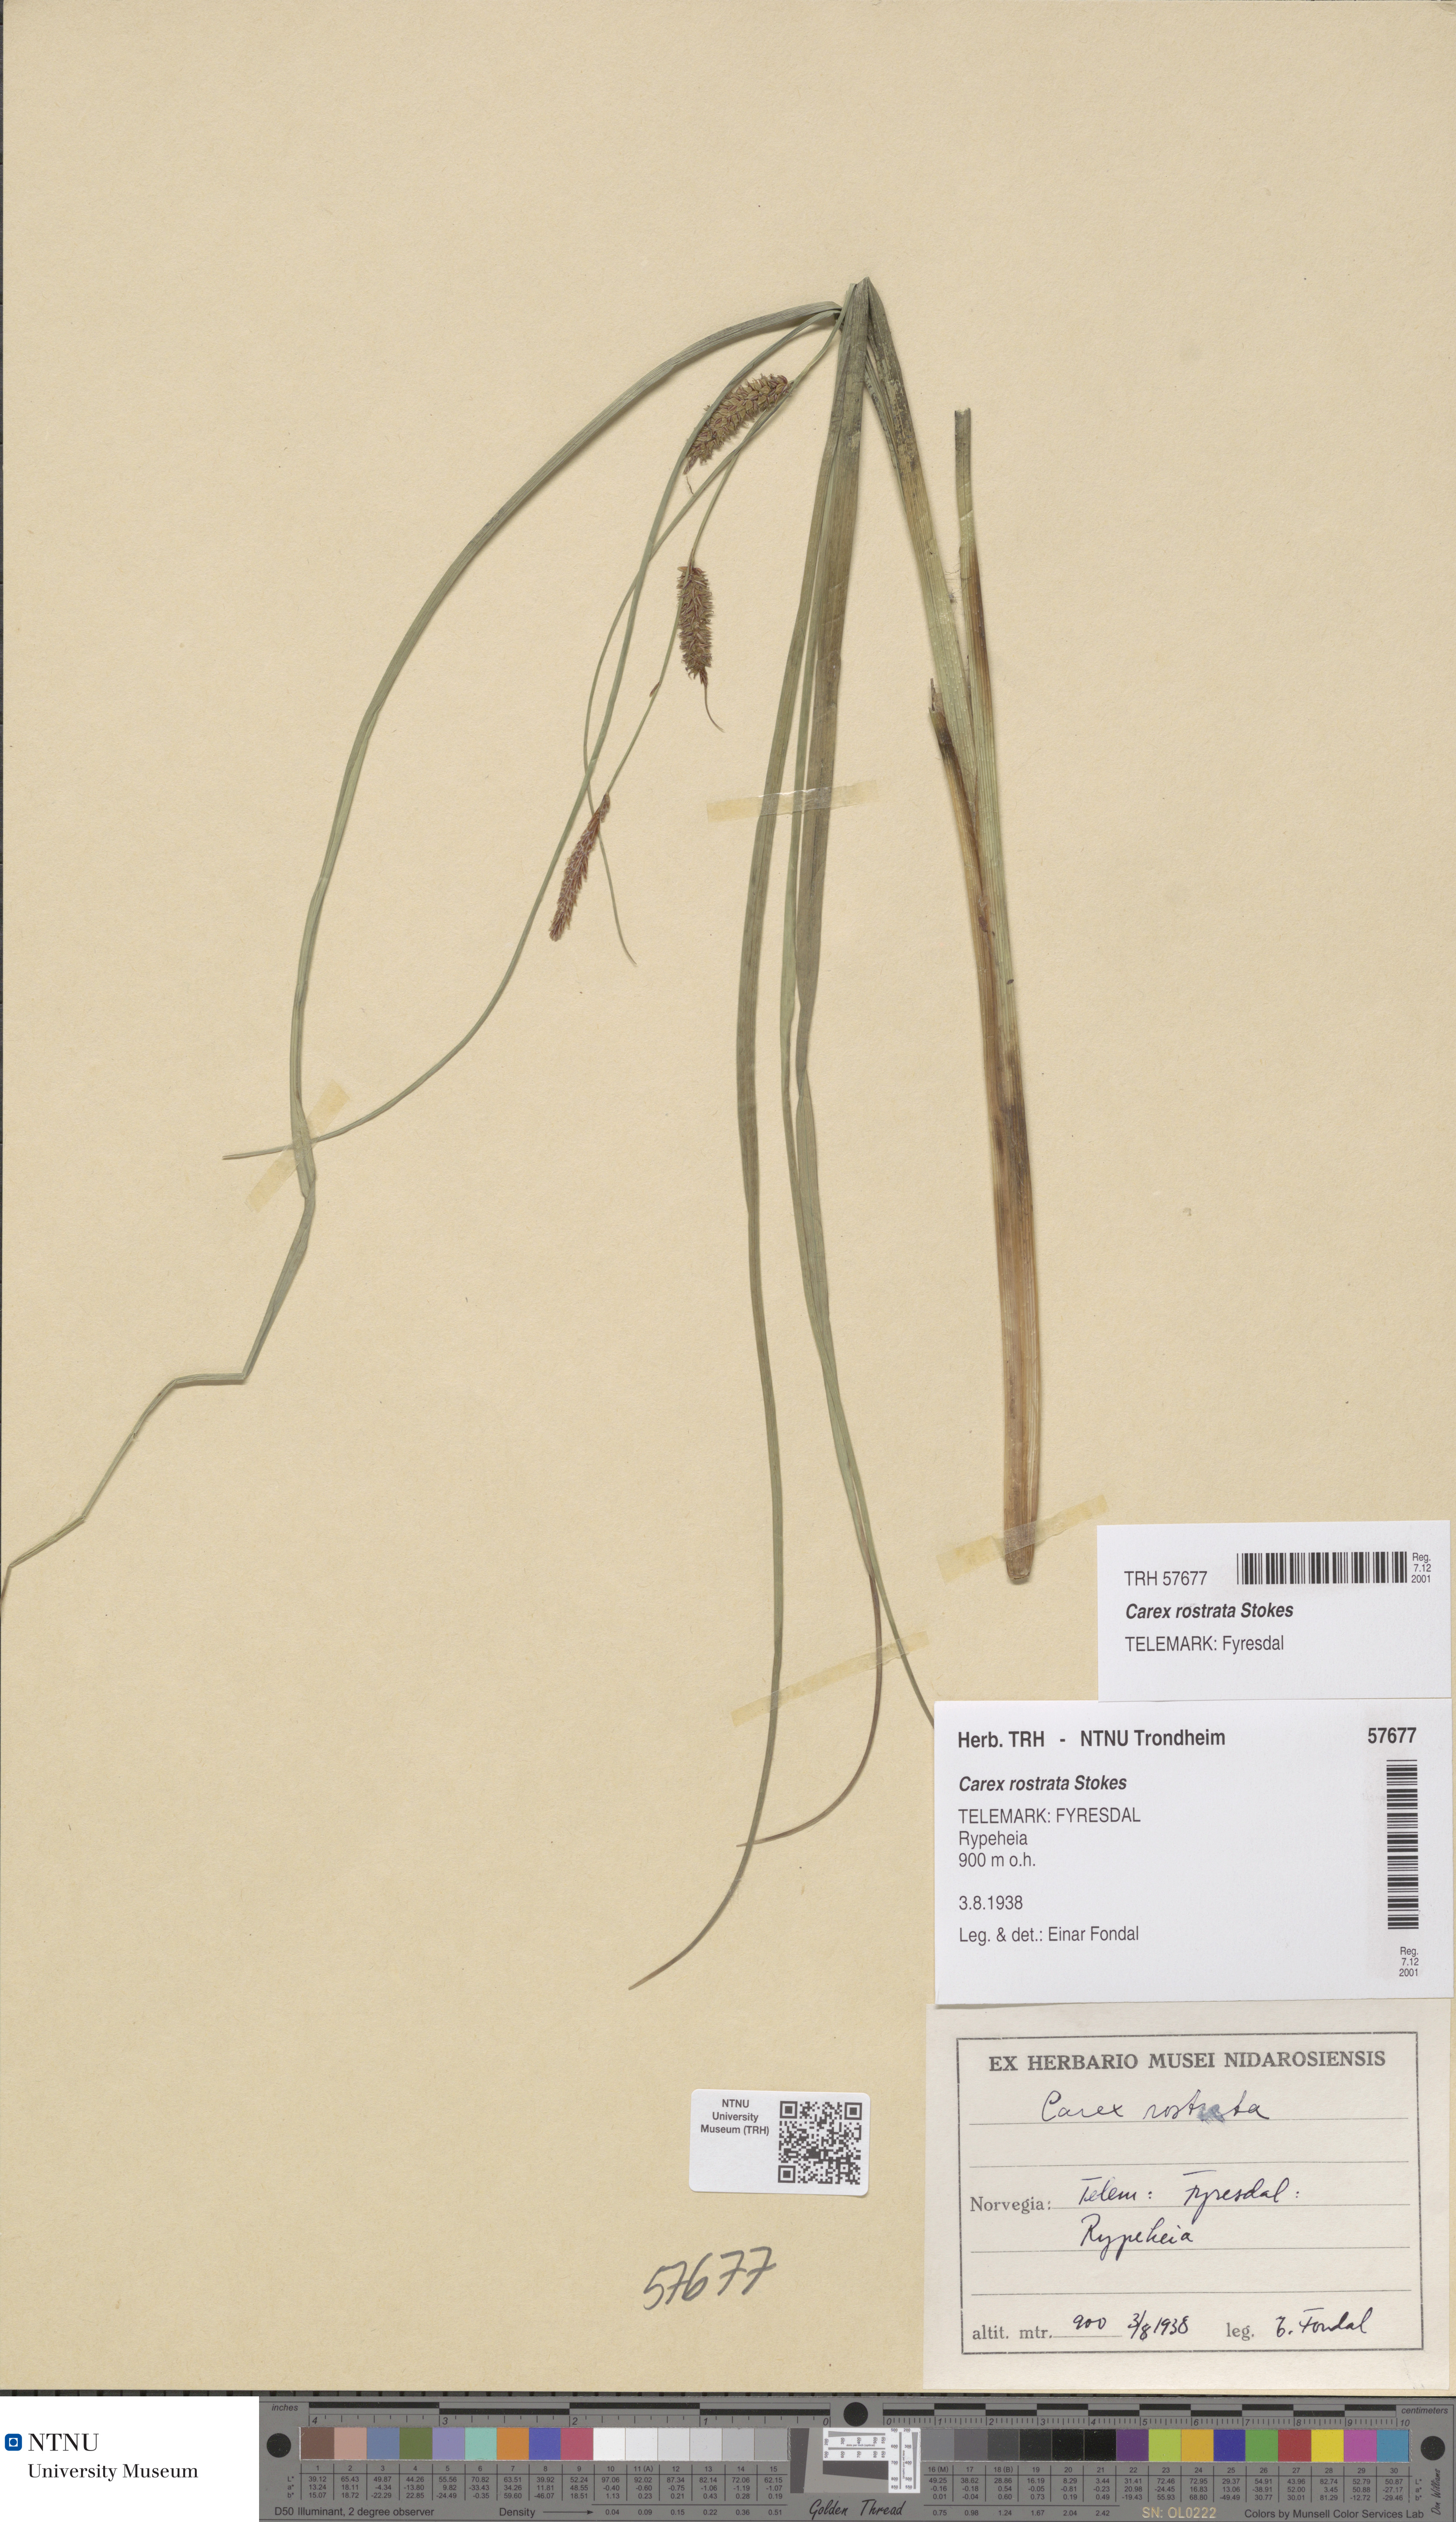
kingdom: Plantae
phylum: Tracheophyta
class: Liliopsida
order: Poales
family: Cyperaceae
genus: Carex
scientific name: Carex rostrata
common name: Bottle sedge
